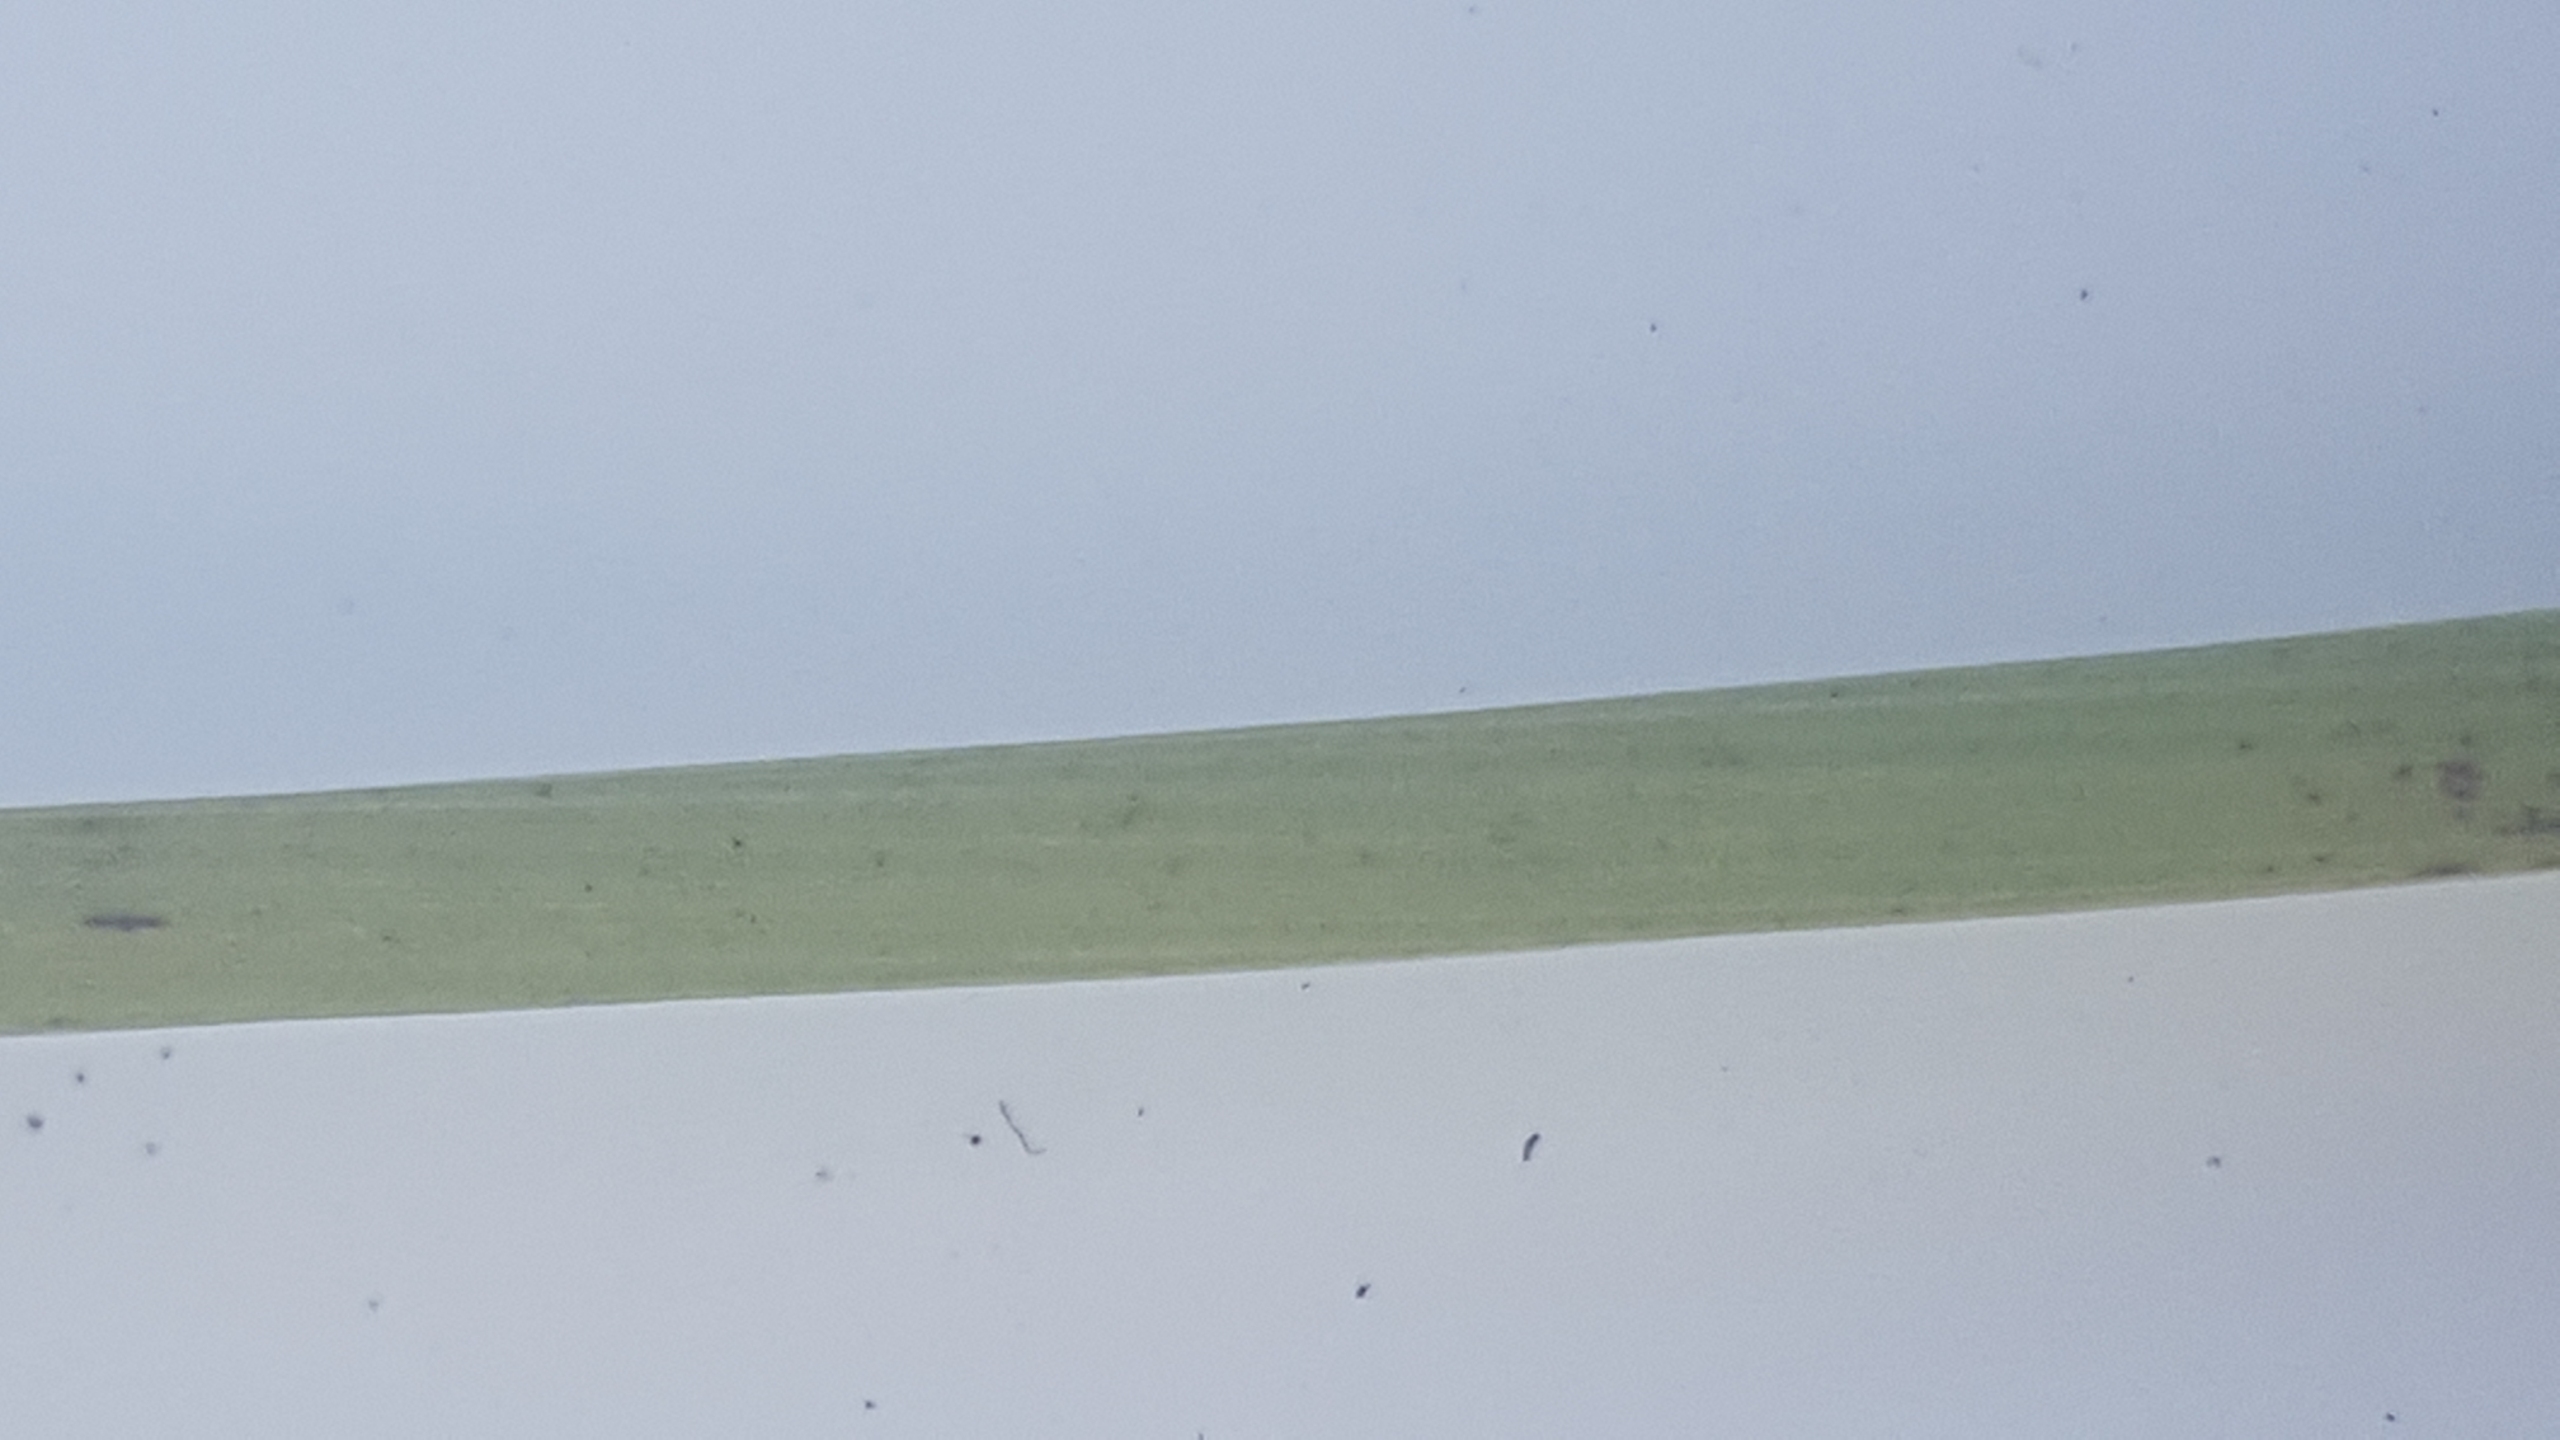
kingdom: Plantae
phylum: Tracheophyta
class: Liliopsida
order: Poales
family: Juncaceae
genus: Juncus
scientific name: Juncus conglomeratus
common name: Knop-siv
